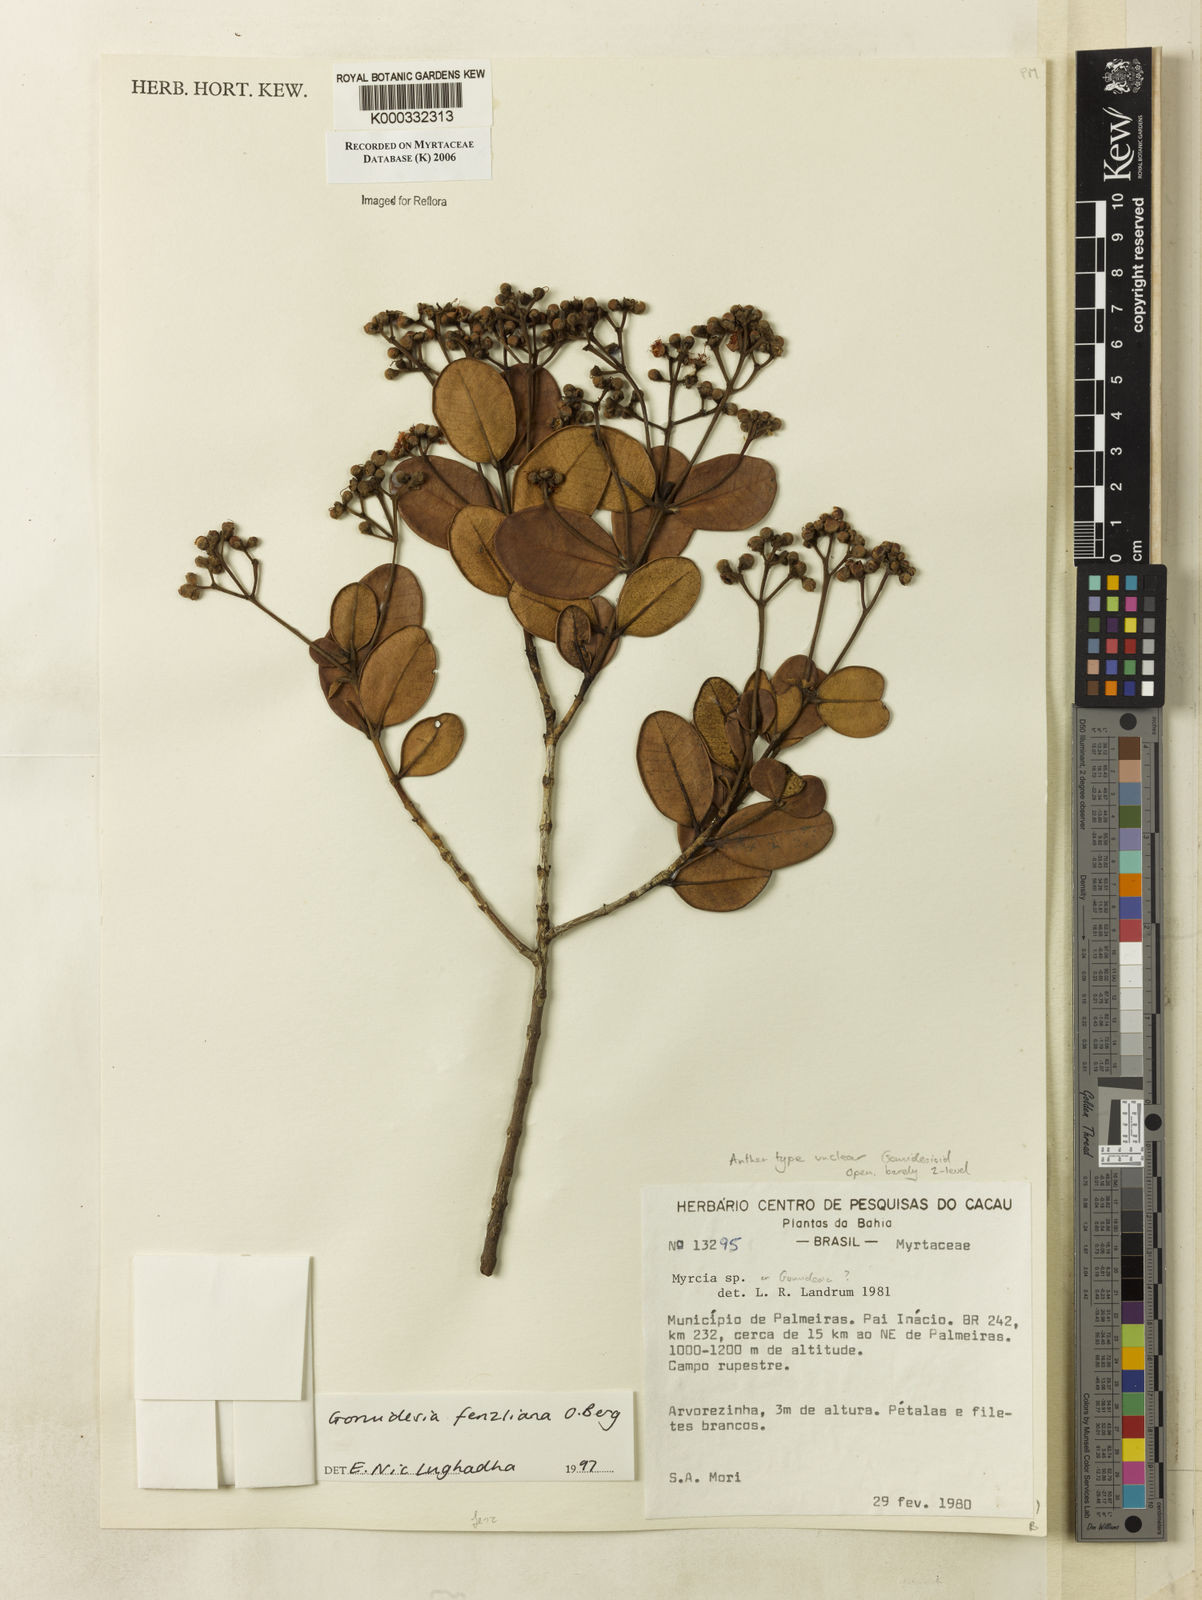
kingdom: Plantae
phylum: Tracheophyta
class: Magnoliopsida
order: Myrtales
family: Myrtaceae
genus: Myrcia
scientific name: Myrcia ilheosensis
